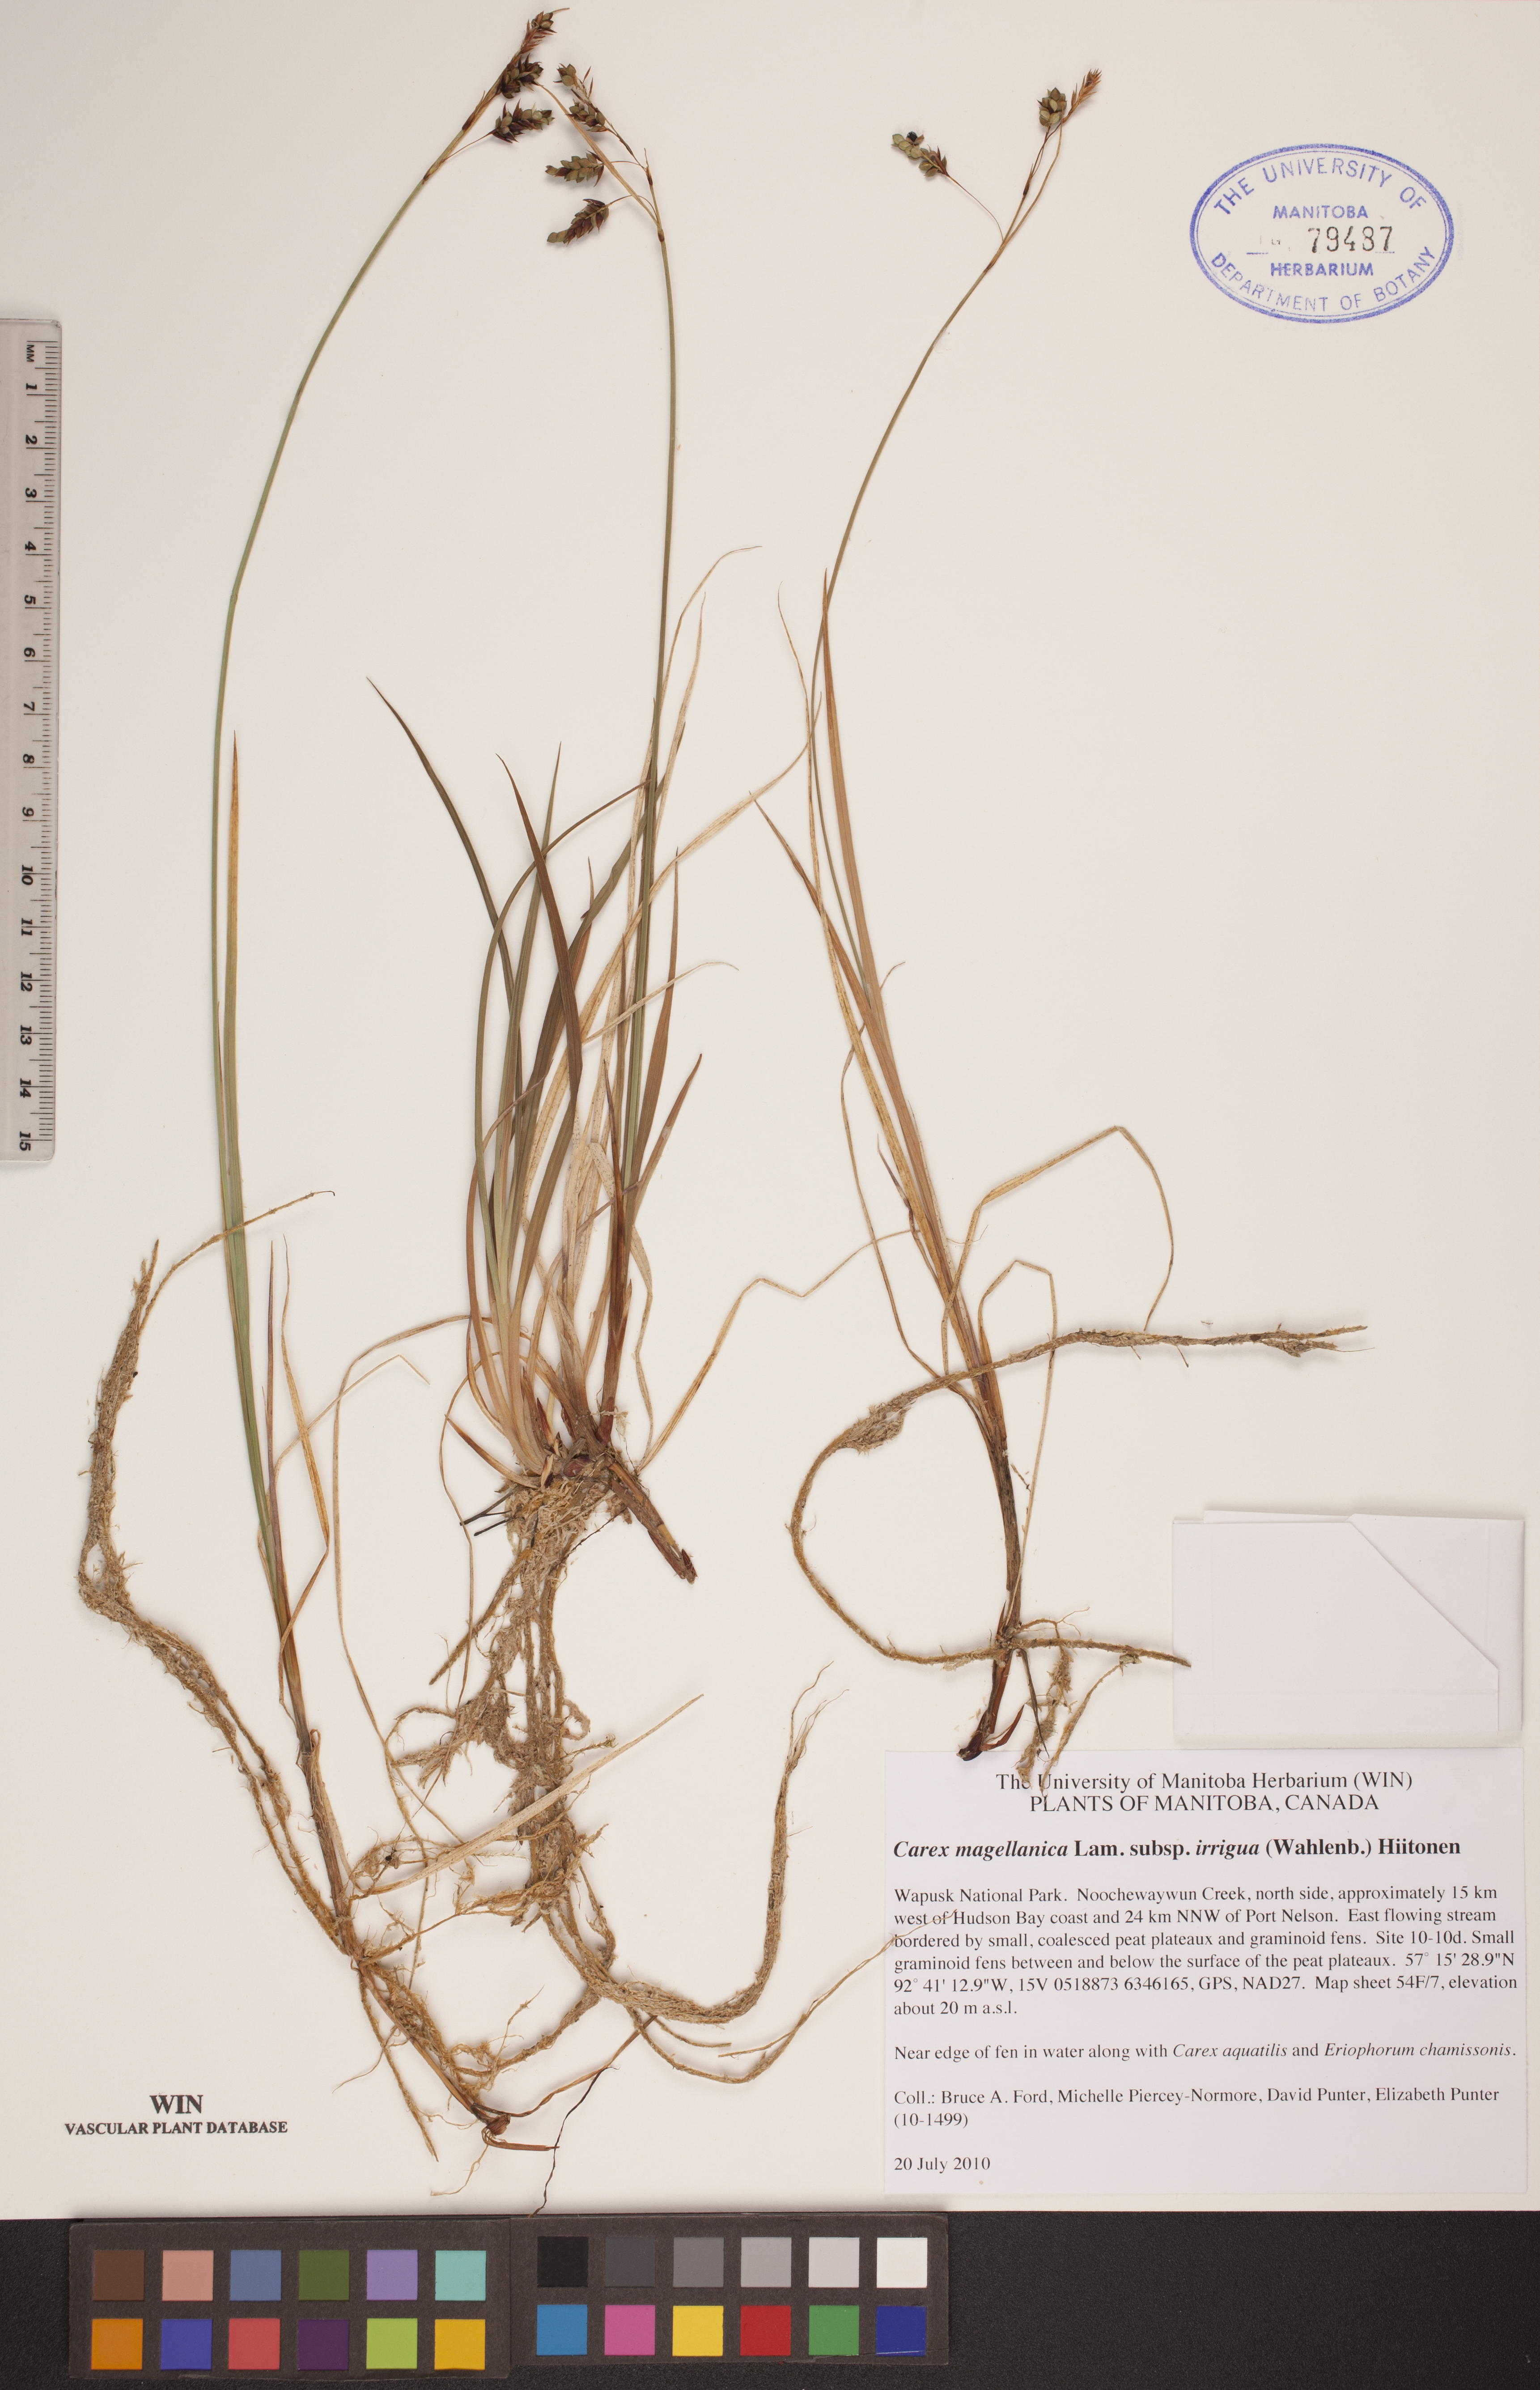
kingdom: Plantae
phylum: Tracheophyta
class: Liliopsida
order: Poales
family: Cyperaceae
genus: Carex
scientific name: Carex magellanica
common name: Bog sedge
